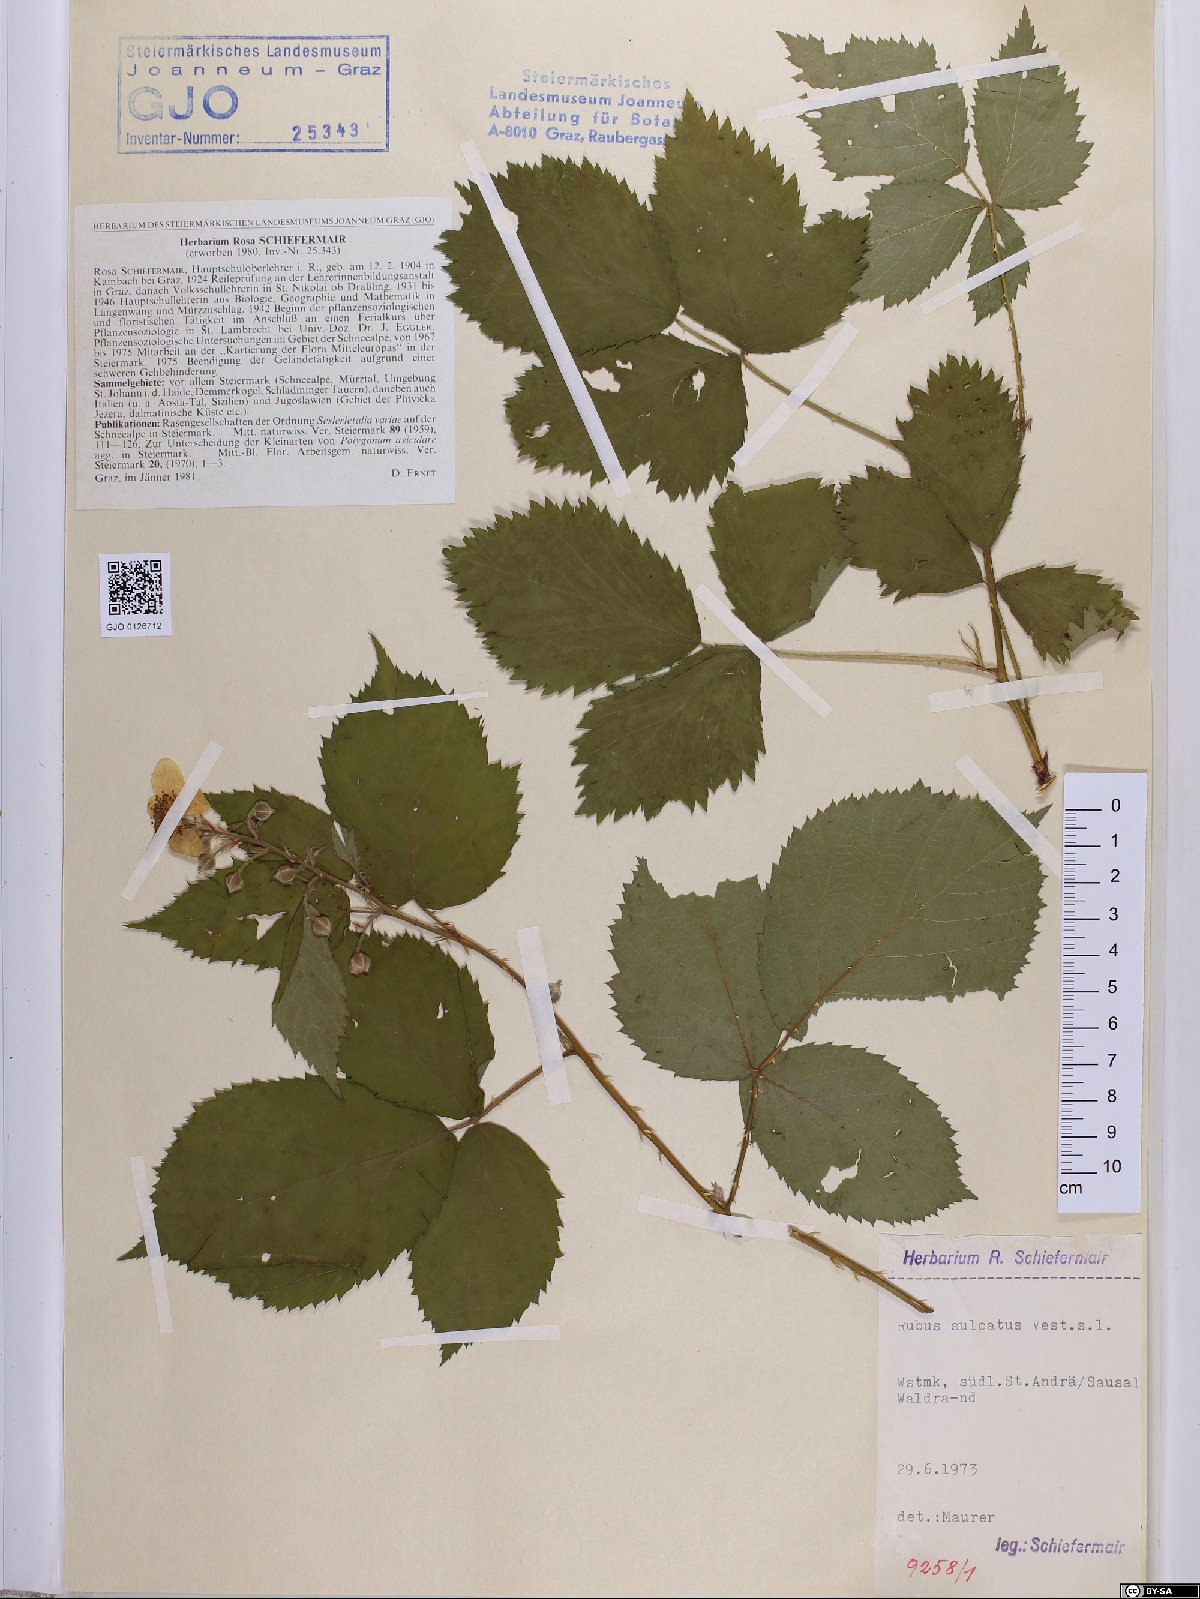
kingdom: Plantae
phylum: Tracheophyta
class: Magnoliopsida
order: Rosales
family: Rosaceae
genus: Rubus
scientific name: Rubus sulcatus
